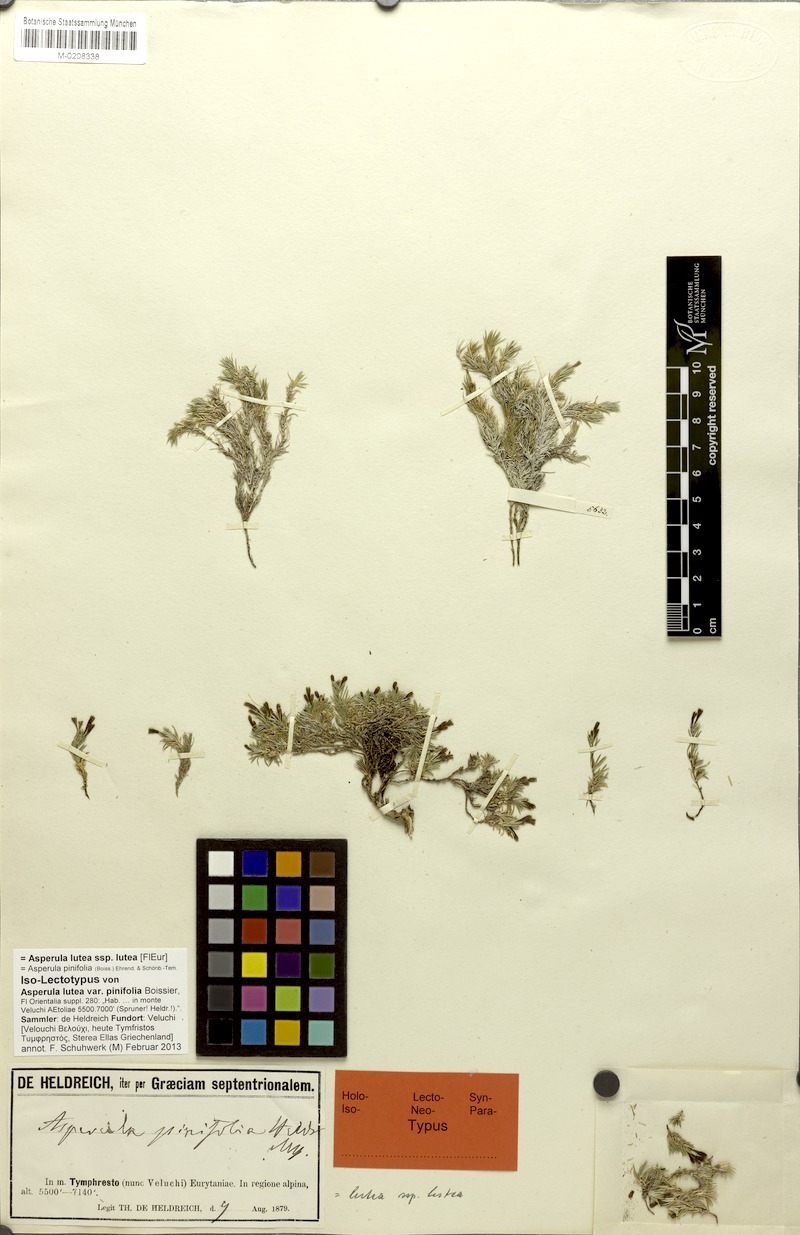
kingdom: Plantae
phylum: Tracheophyta
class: Magnoliopsida
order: Gentianales
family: Rubiaceae
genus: Cynanchica
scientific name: Cynanchica lutea
